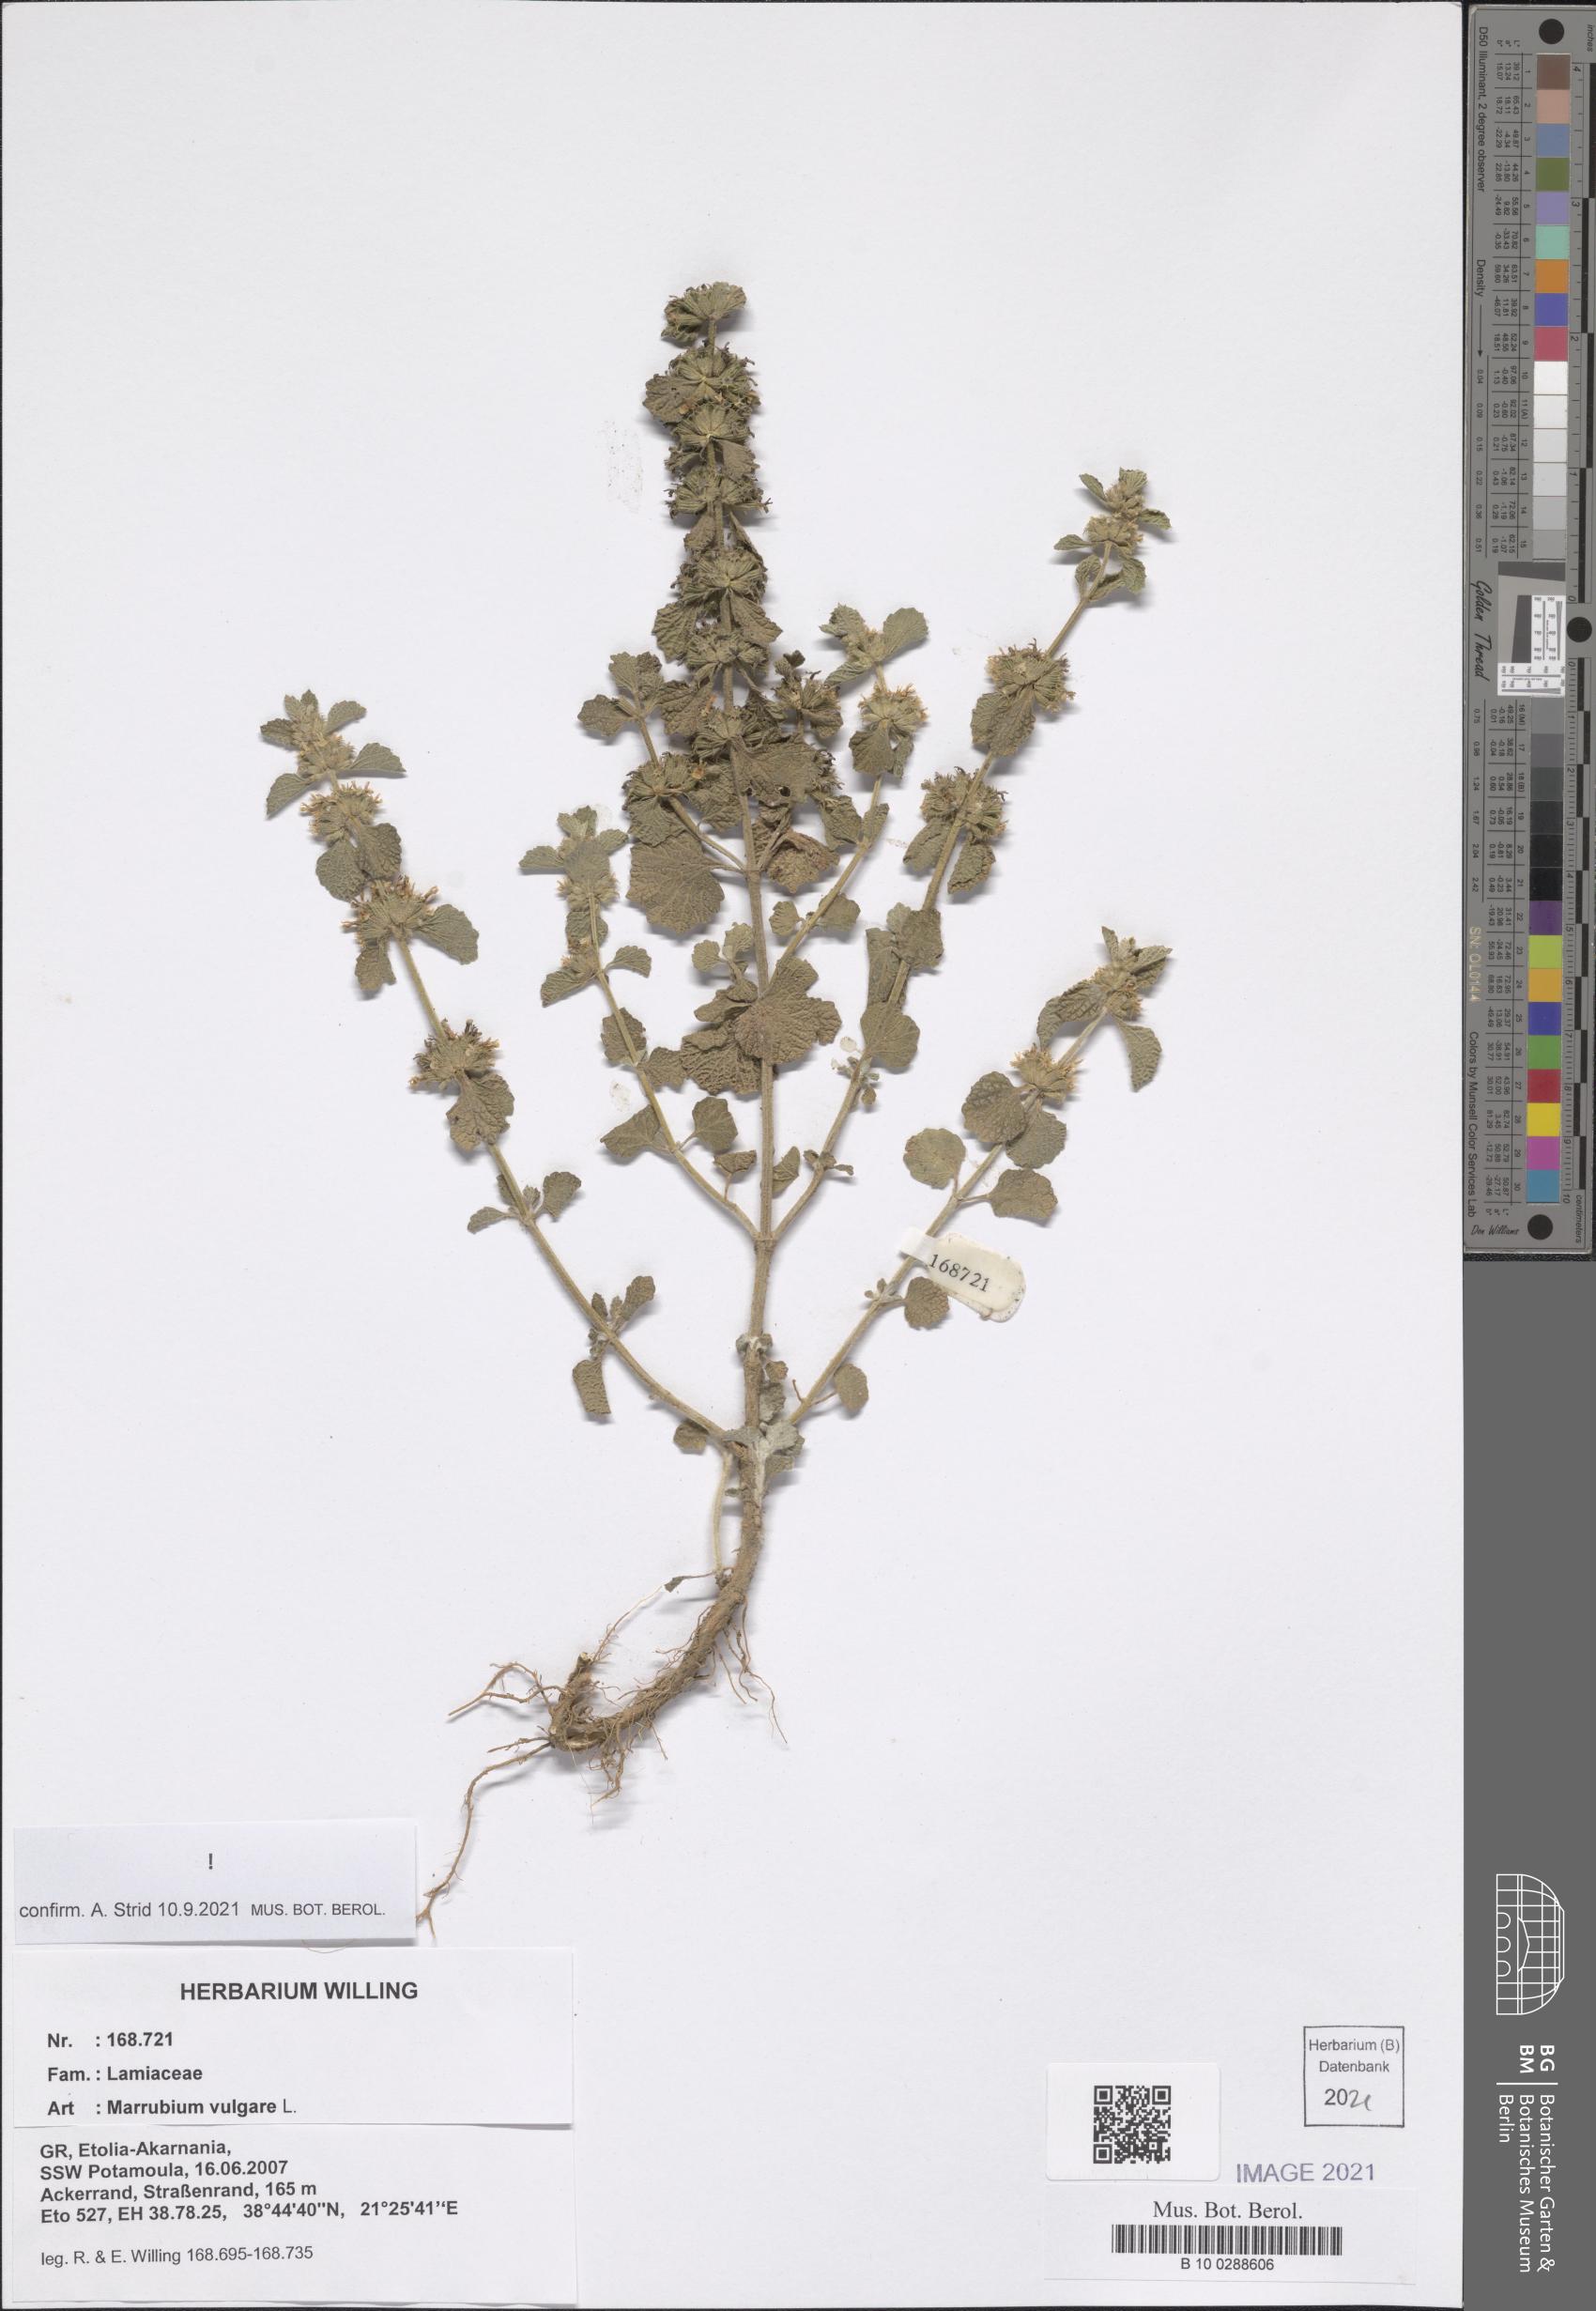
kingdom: Plantae
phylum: Tracheophyta
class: Magnoliopsida
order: Lamiales
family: Lamiaceae
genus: Marrubium
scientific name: Marrubium vulgare
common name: Horehound
